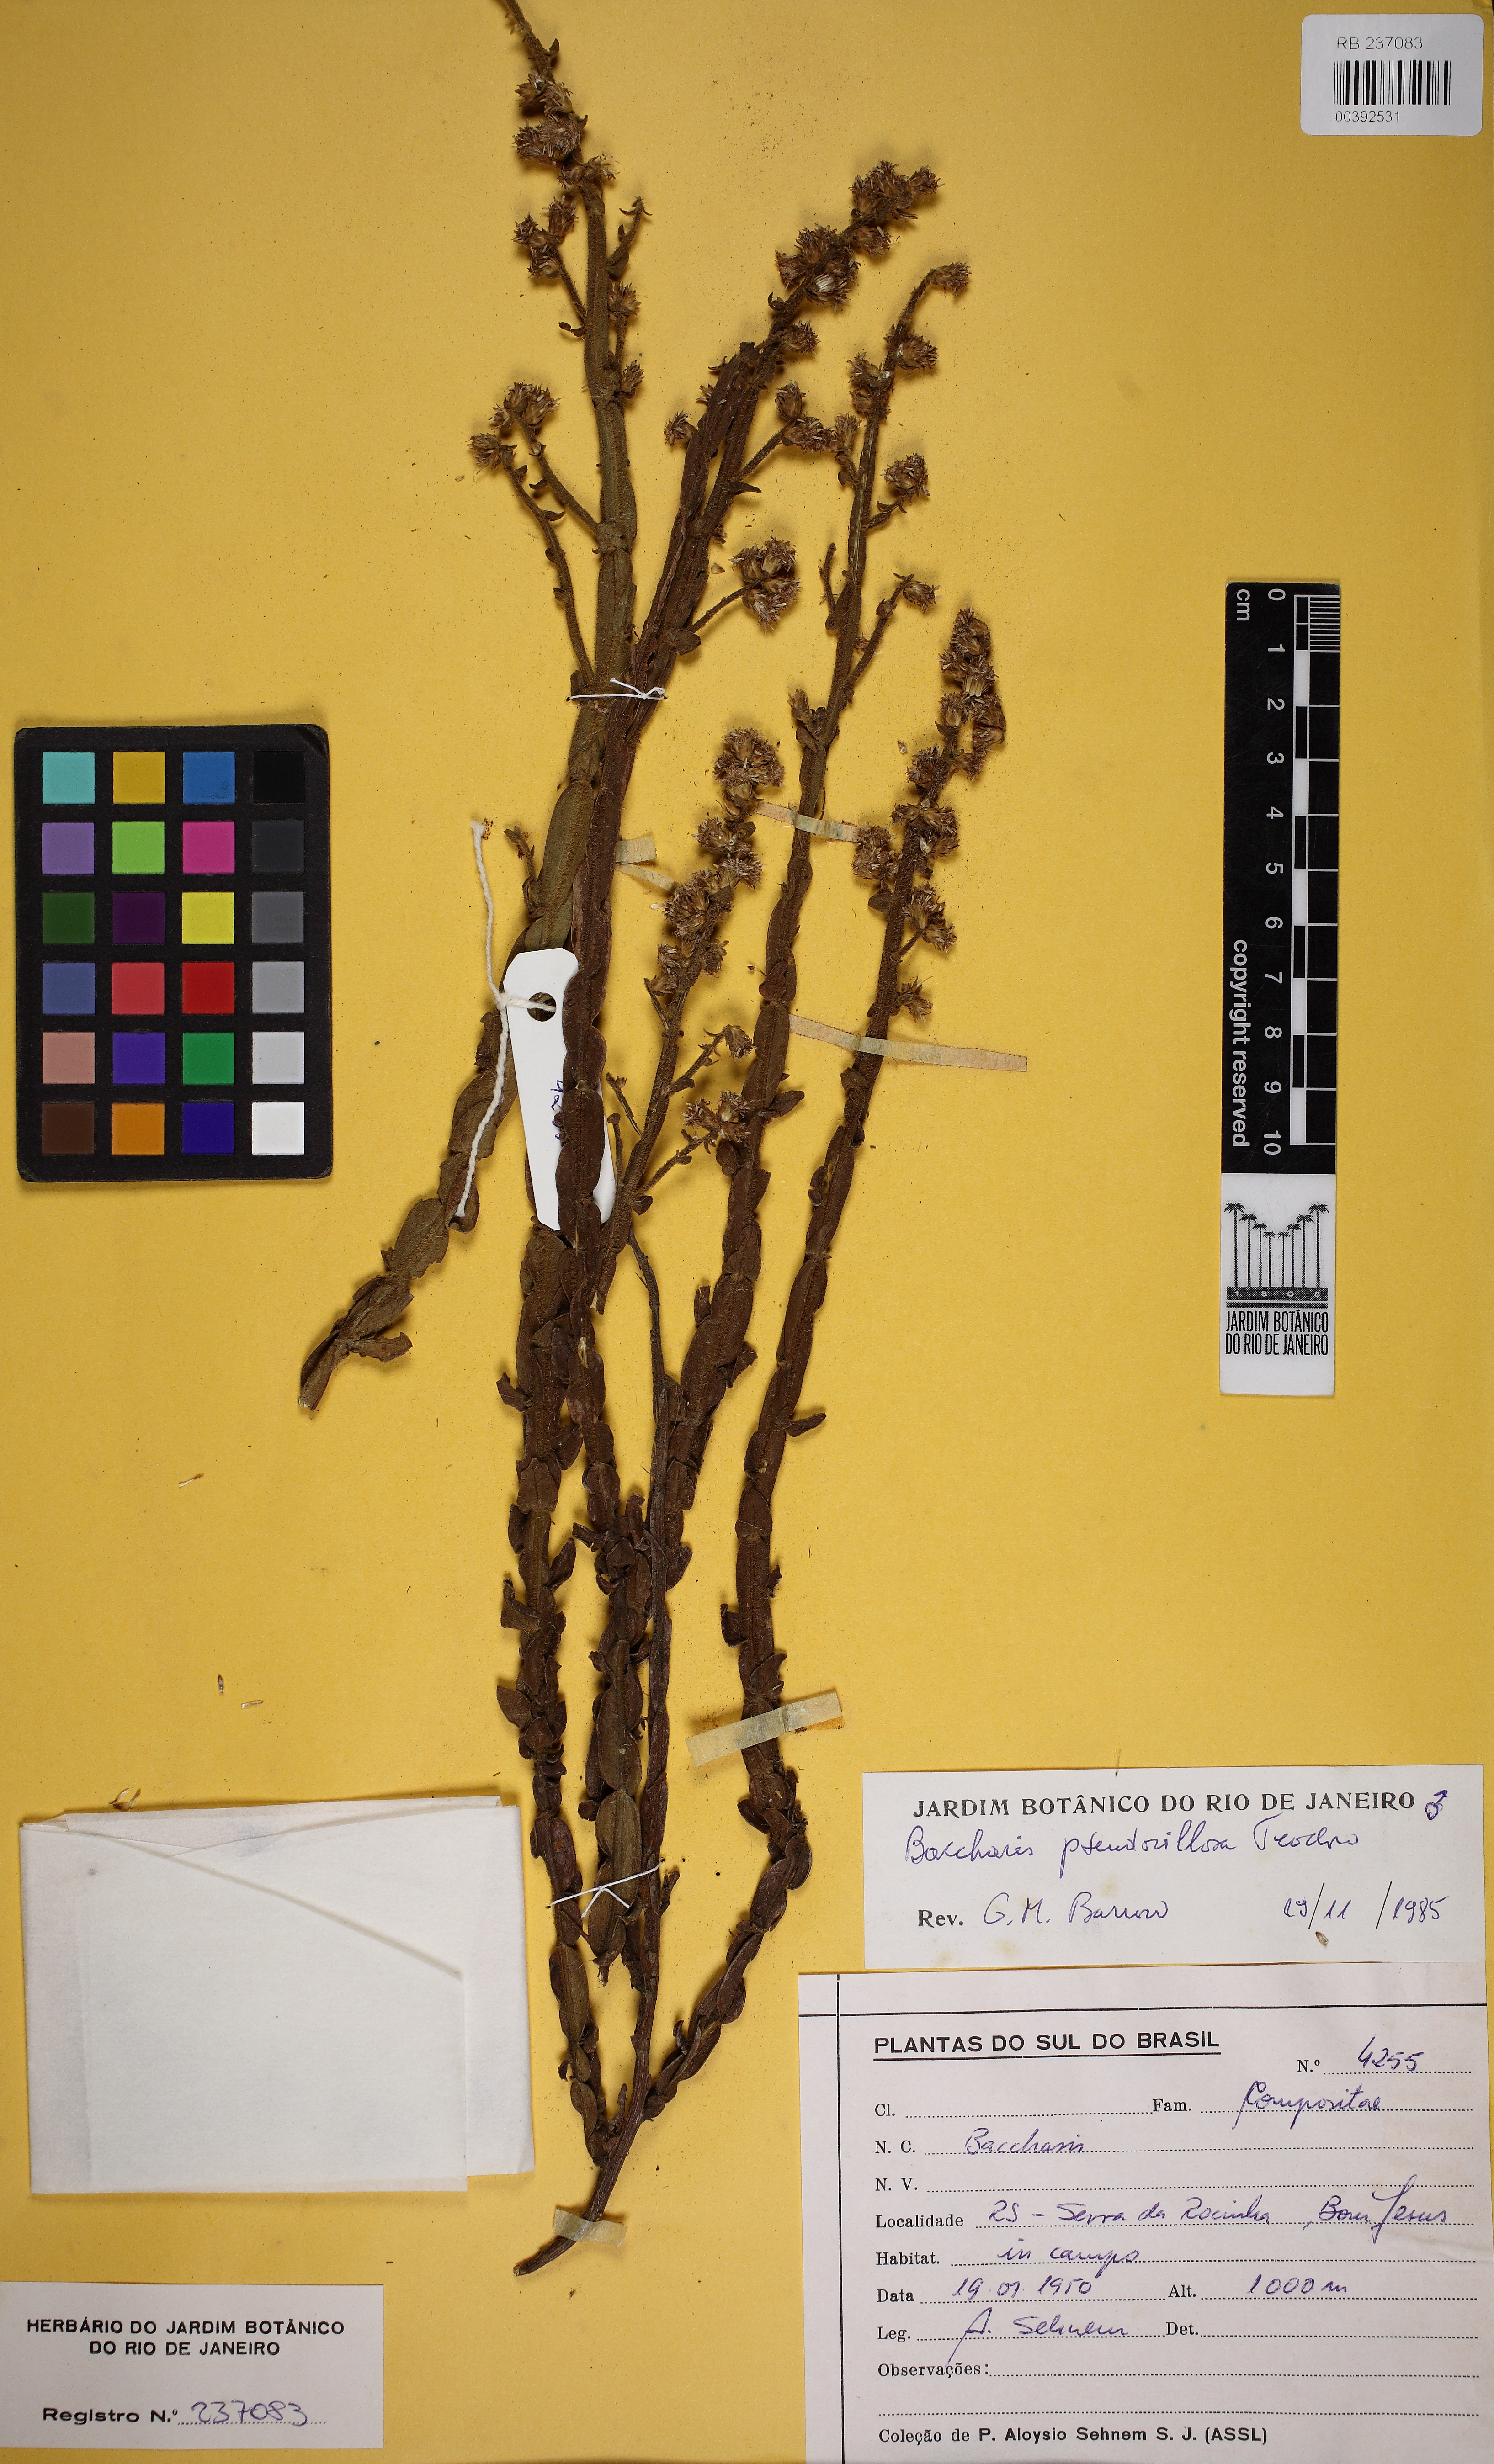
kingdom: Plantae
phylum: Tracheophyta
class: Magnoliopsida
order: Asterales
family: Asteraceae
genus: Baccharis
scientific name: Baccharis pseudovillosa
